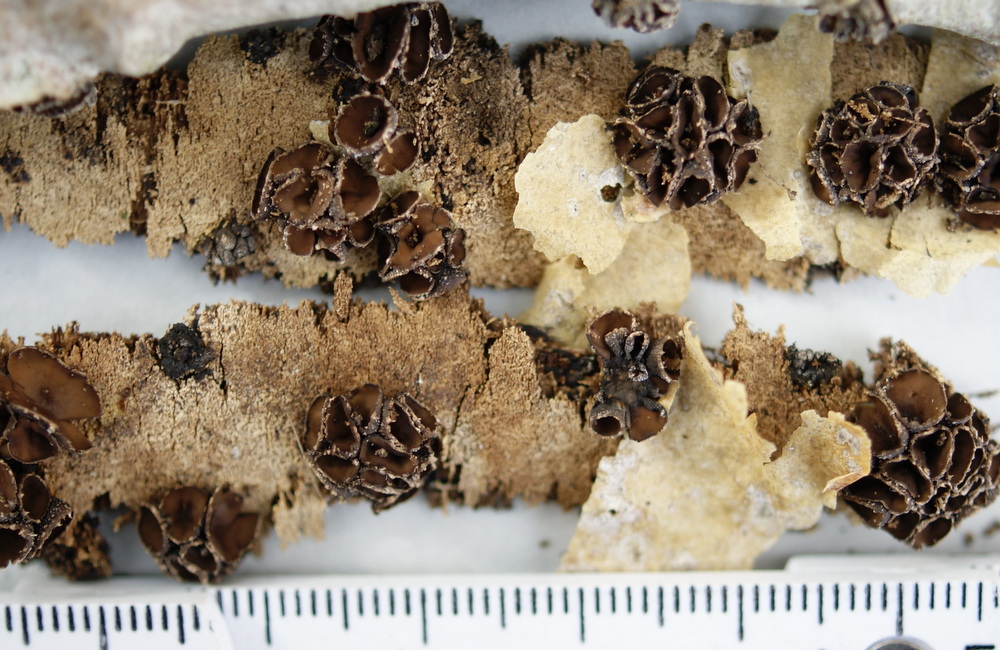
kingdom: Fungi
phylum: Ascomycota
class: Leotiomycetes
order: Helotiales
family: Sclerotiniaceae
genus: Sclerencoelia
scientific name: Sclerencoelia fascicularis
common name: poppel-læderskive
